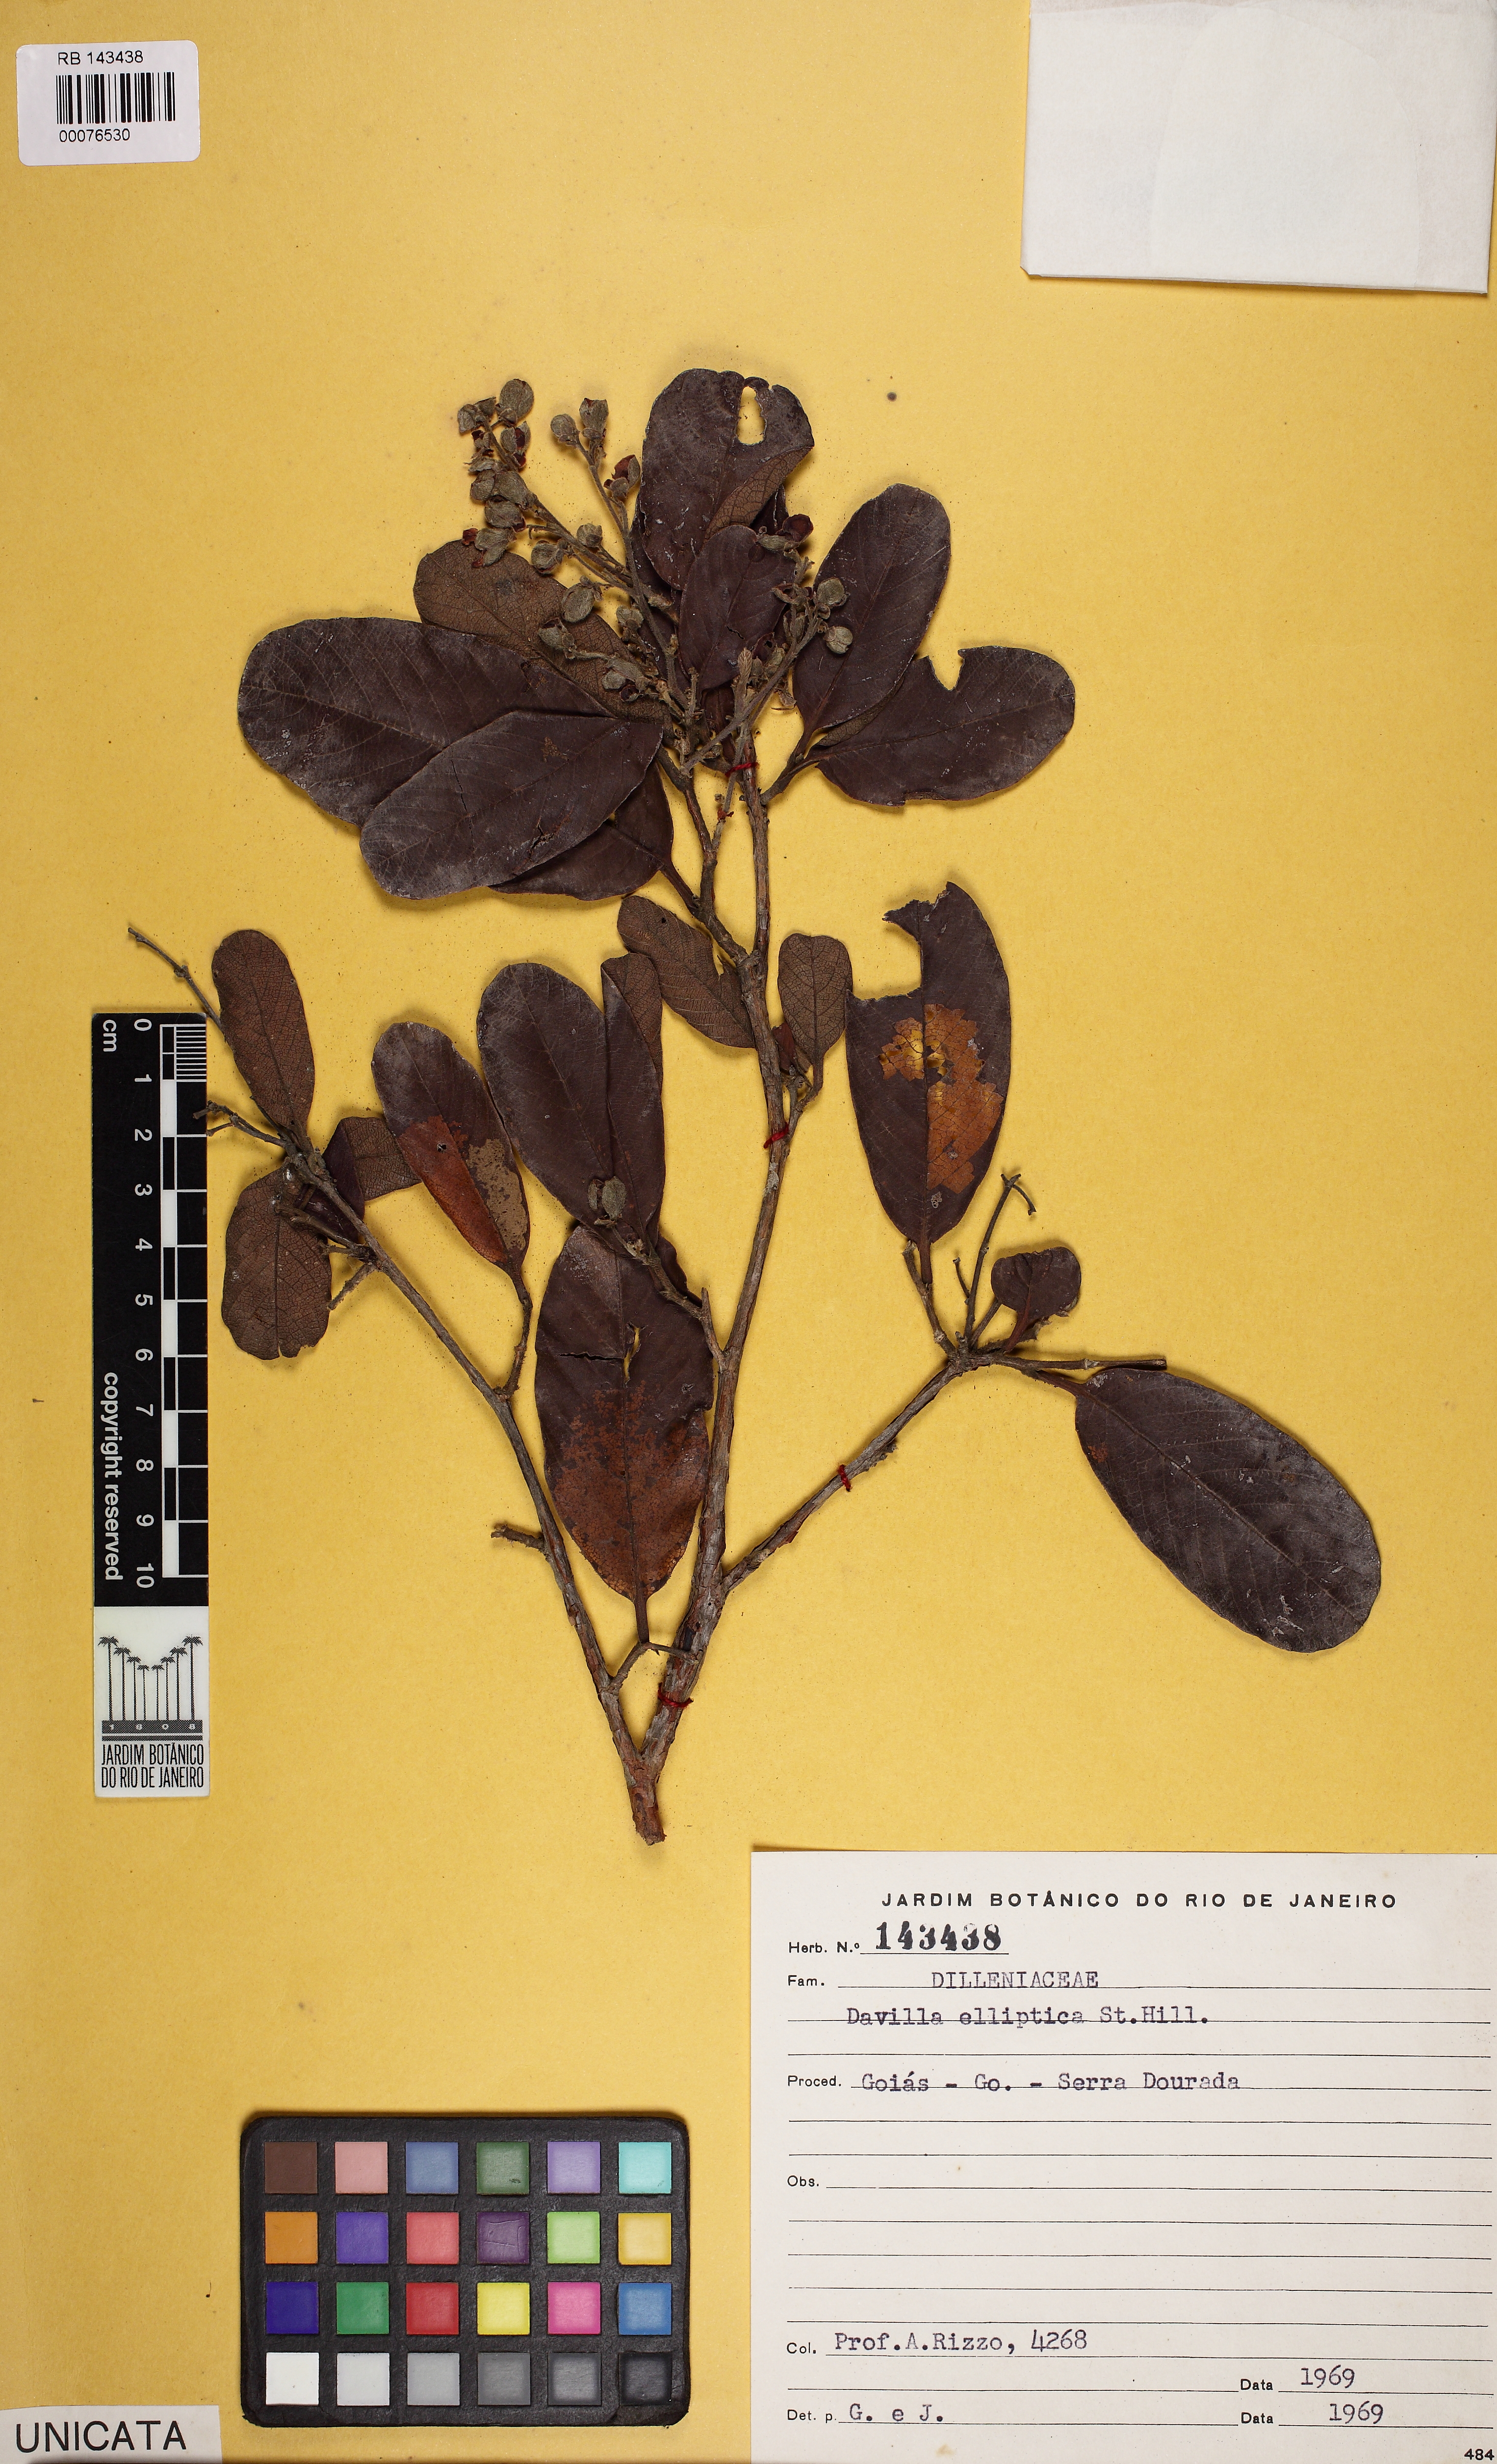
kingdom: Plantae
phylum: Tracheophyta
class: Magnoliopsida
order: Dilleniales
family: Dilleniaceae
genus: Davilla
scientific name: Davilla elliptica
